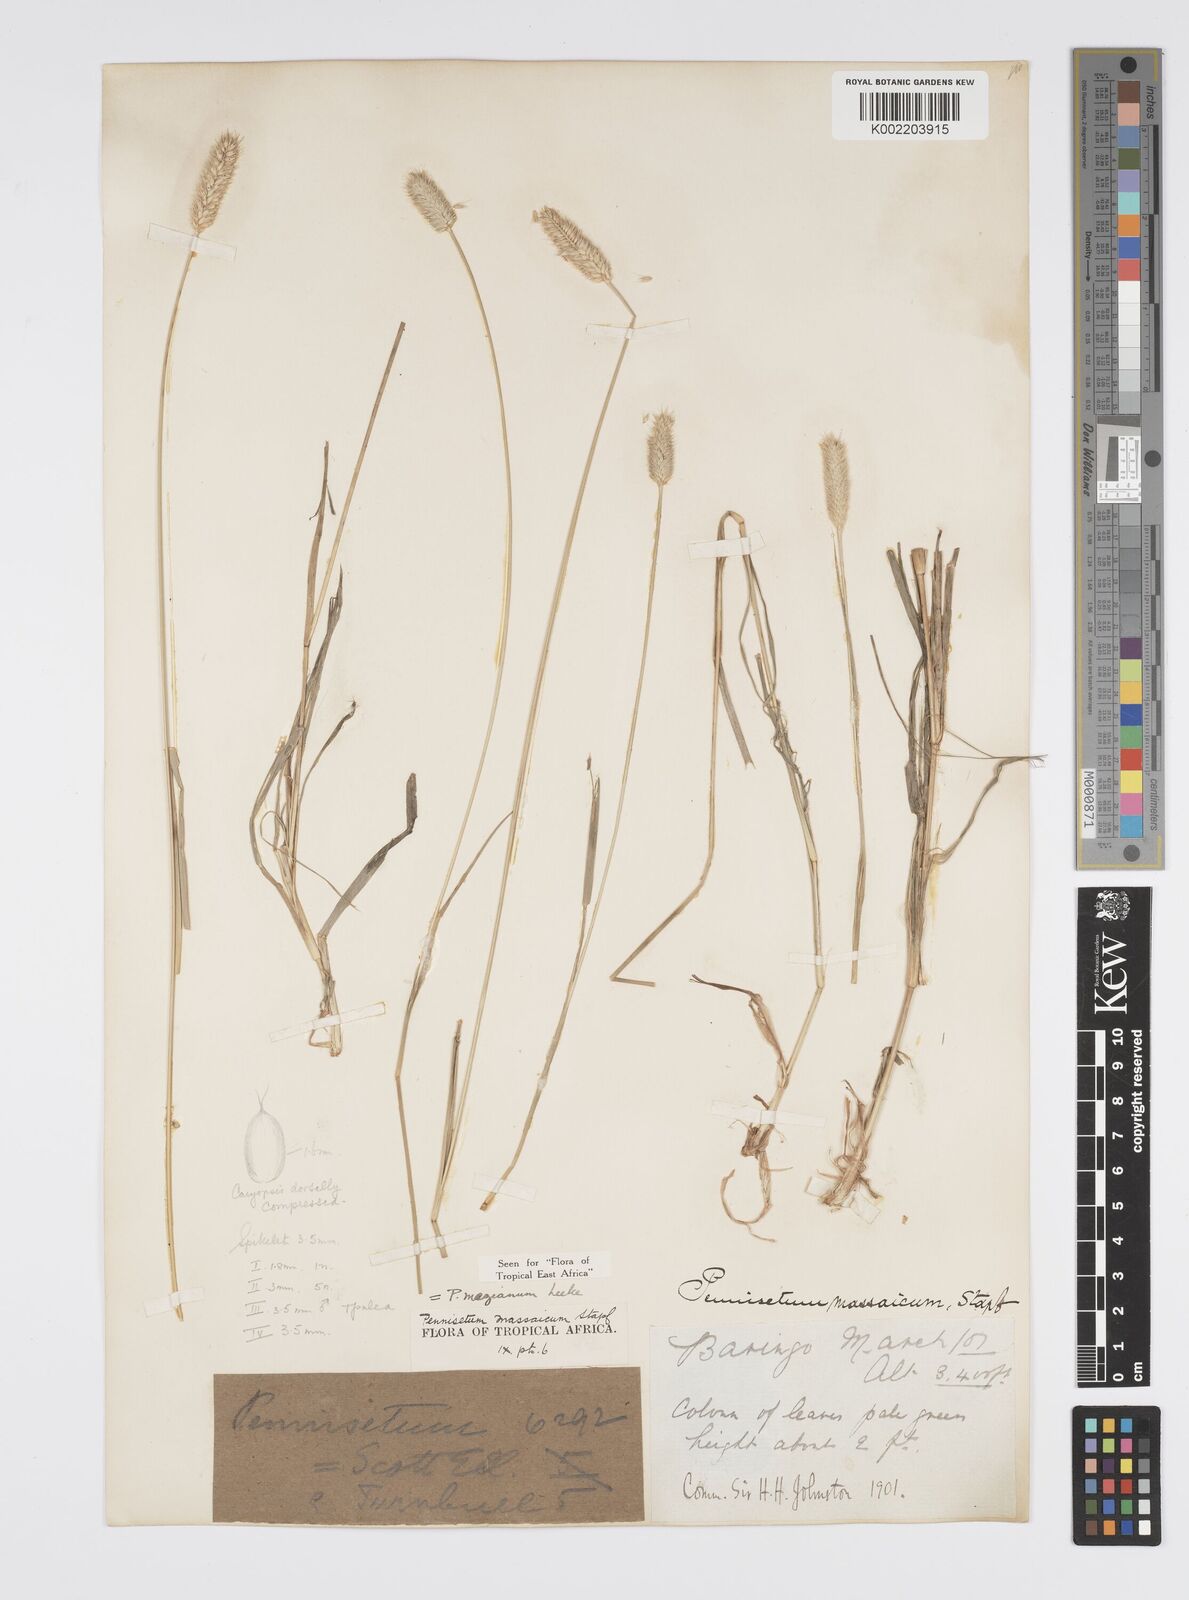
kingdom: Plantae
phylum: Tracheophyta
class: Liliopsida
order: Poales
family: Poaceae
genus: Cenchrus
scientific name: Cenchrus mezianus
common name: Bamboo grass
